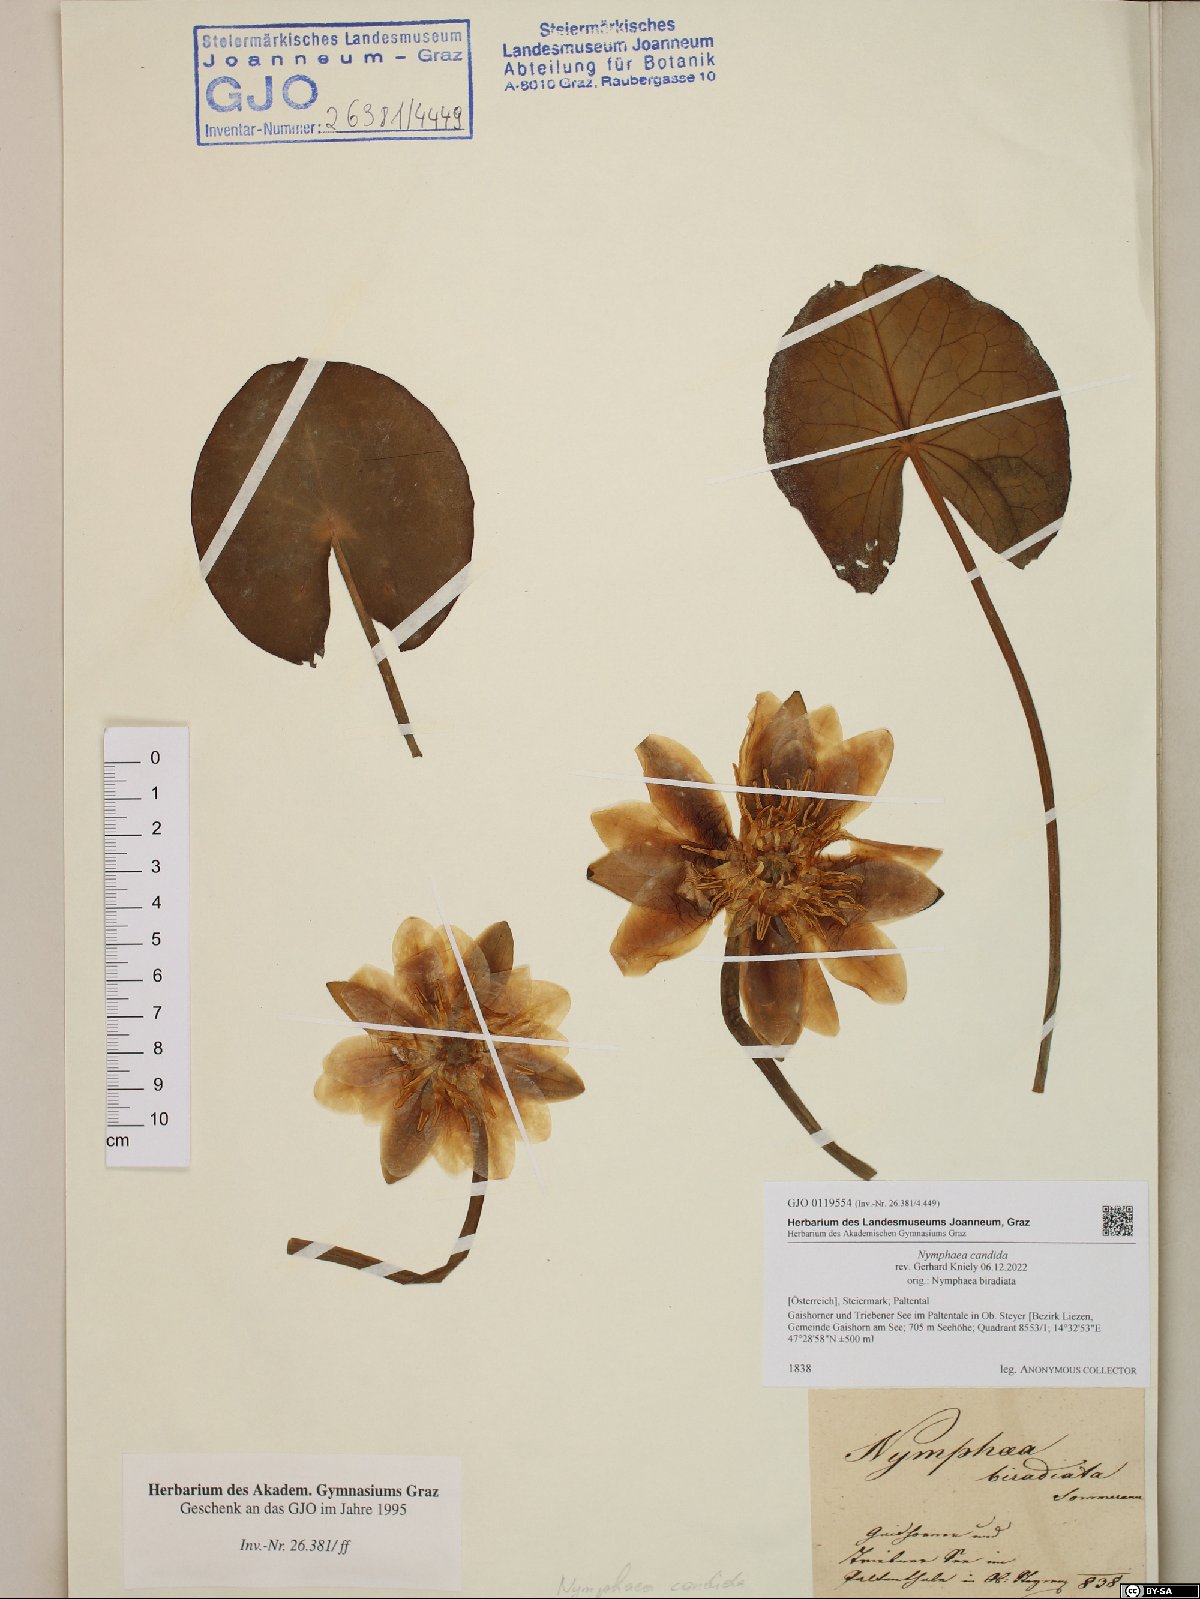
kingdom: Plantae
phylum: Tracheophyta
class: Magnoliopsida
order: Nymphaeales
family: Nymphaeaceae
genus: Nymphaea
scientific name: Nymphaea candida
